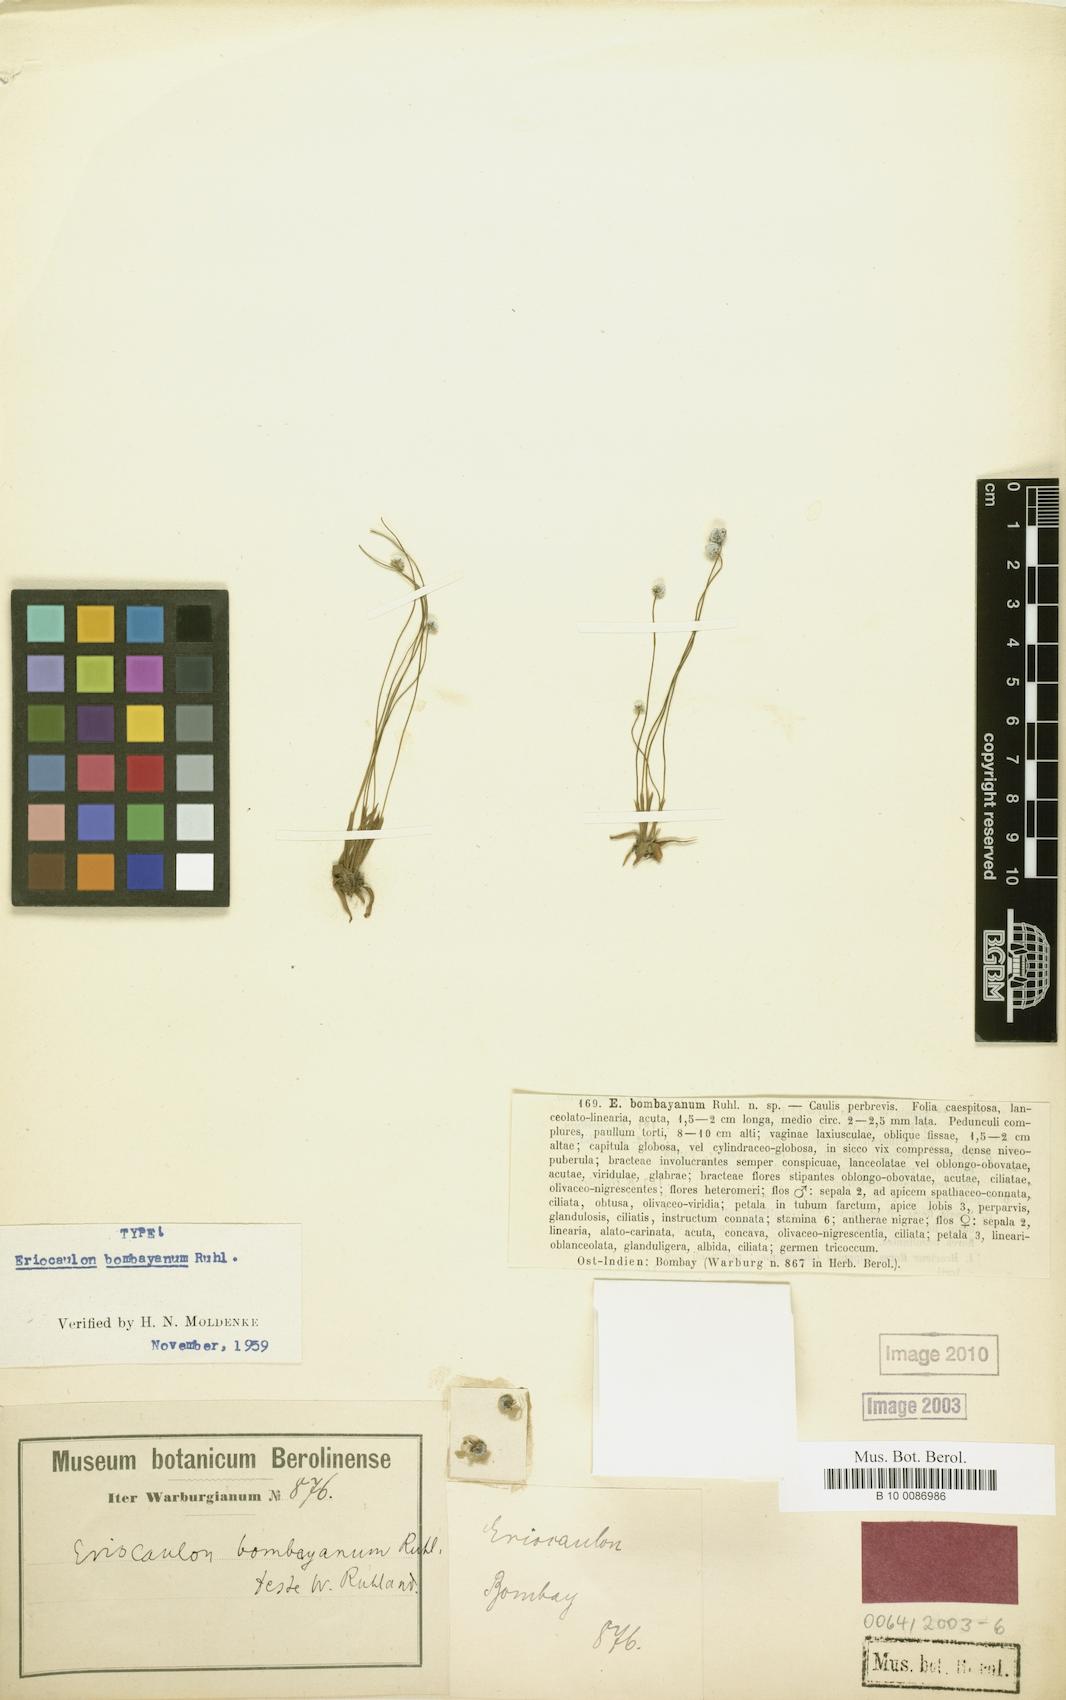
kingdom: Plantae
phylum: Tracheophyta
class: Liliopsida
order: Poales
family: Eriocaulaceae
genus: Eriocaulon
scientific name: Eriocaulon eurypeplon
